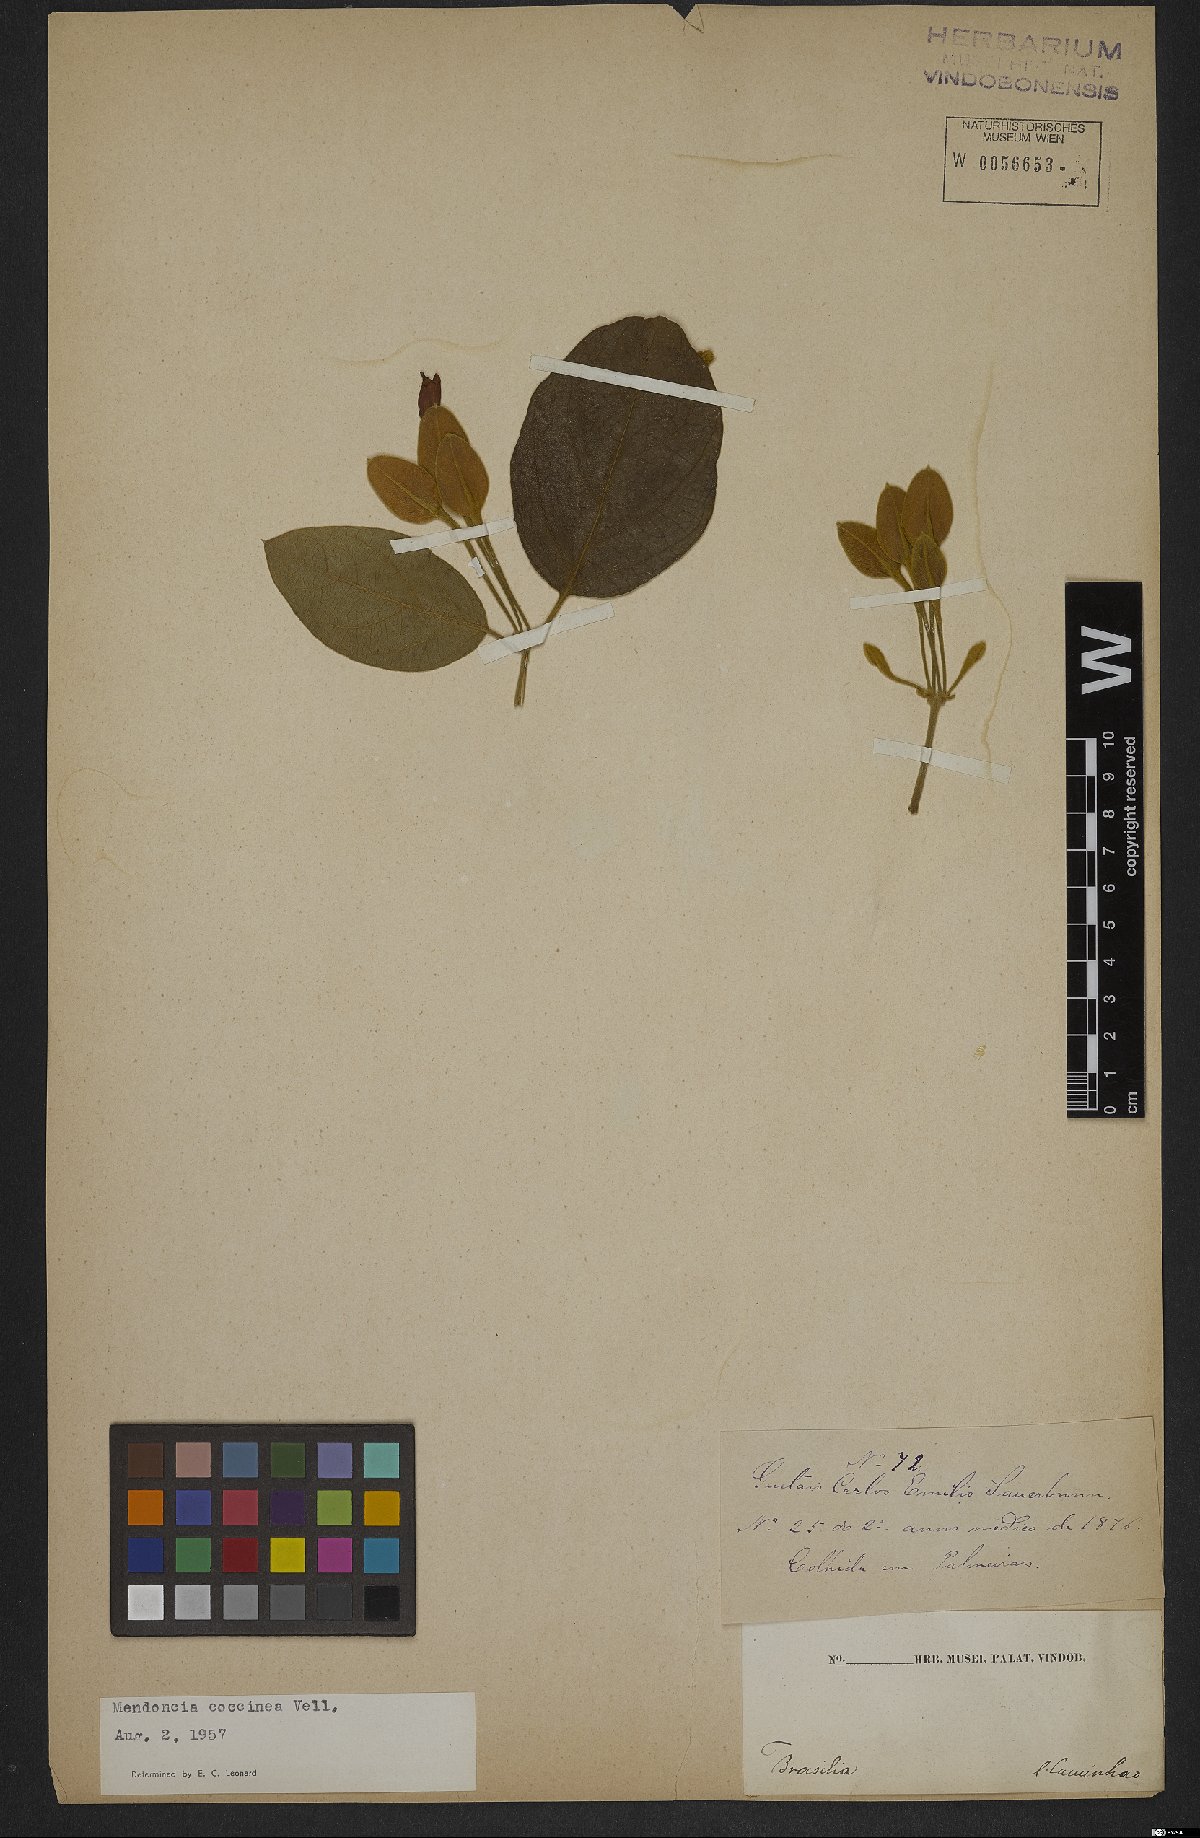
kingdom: Plantae
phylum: Tracheophyta
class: Magnoliopsida
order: Lamiales
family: Acanthaceae
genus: Mendoncia
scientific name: Mendoncia coccinea
